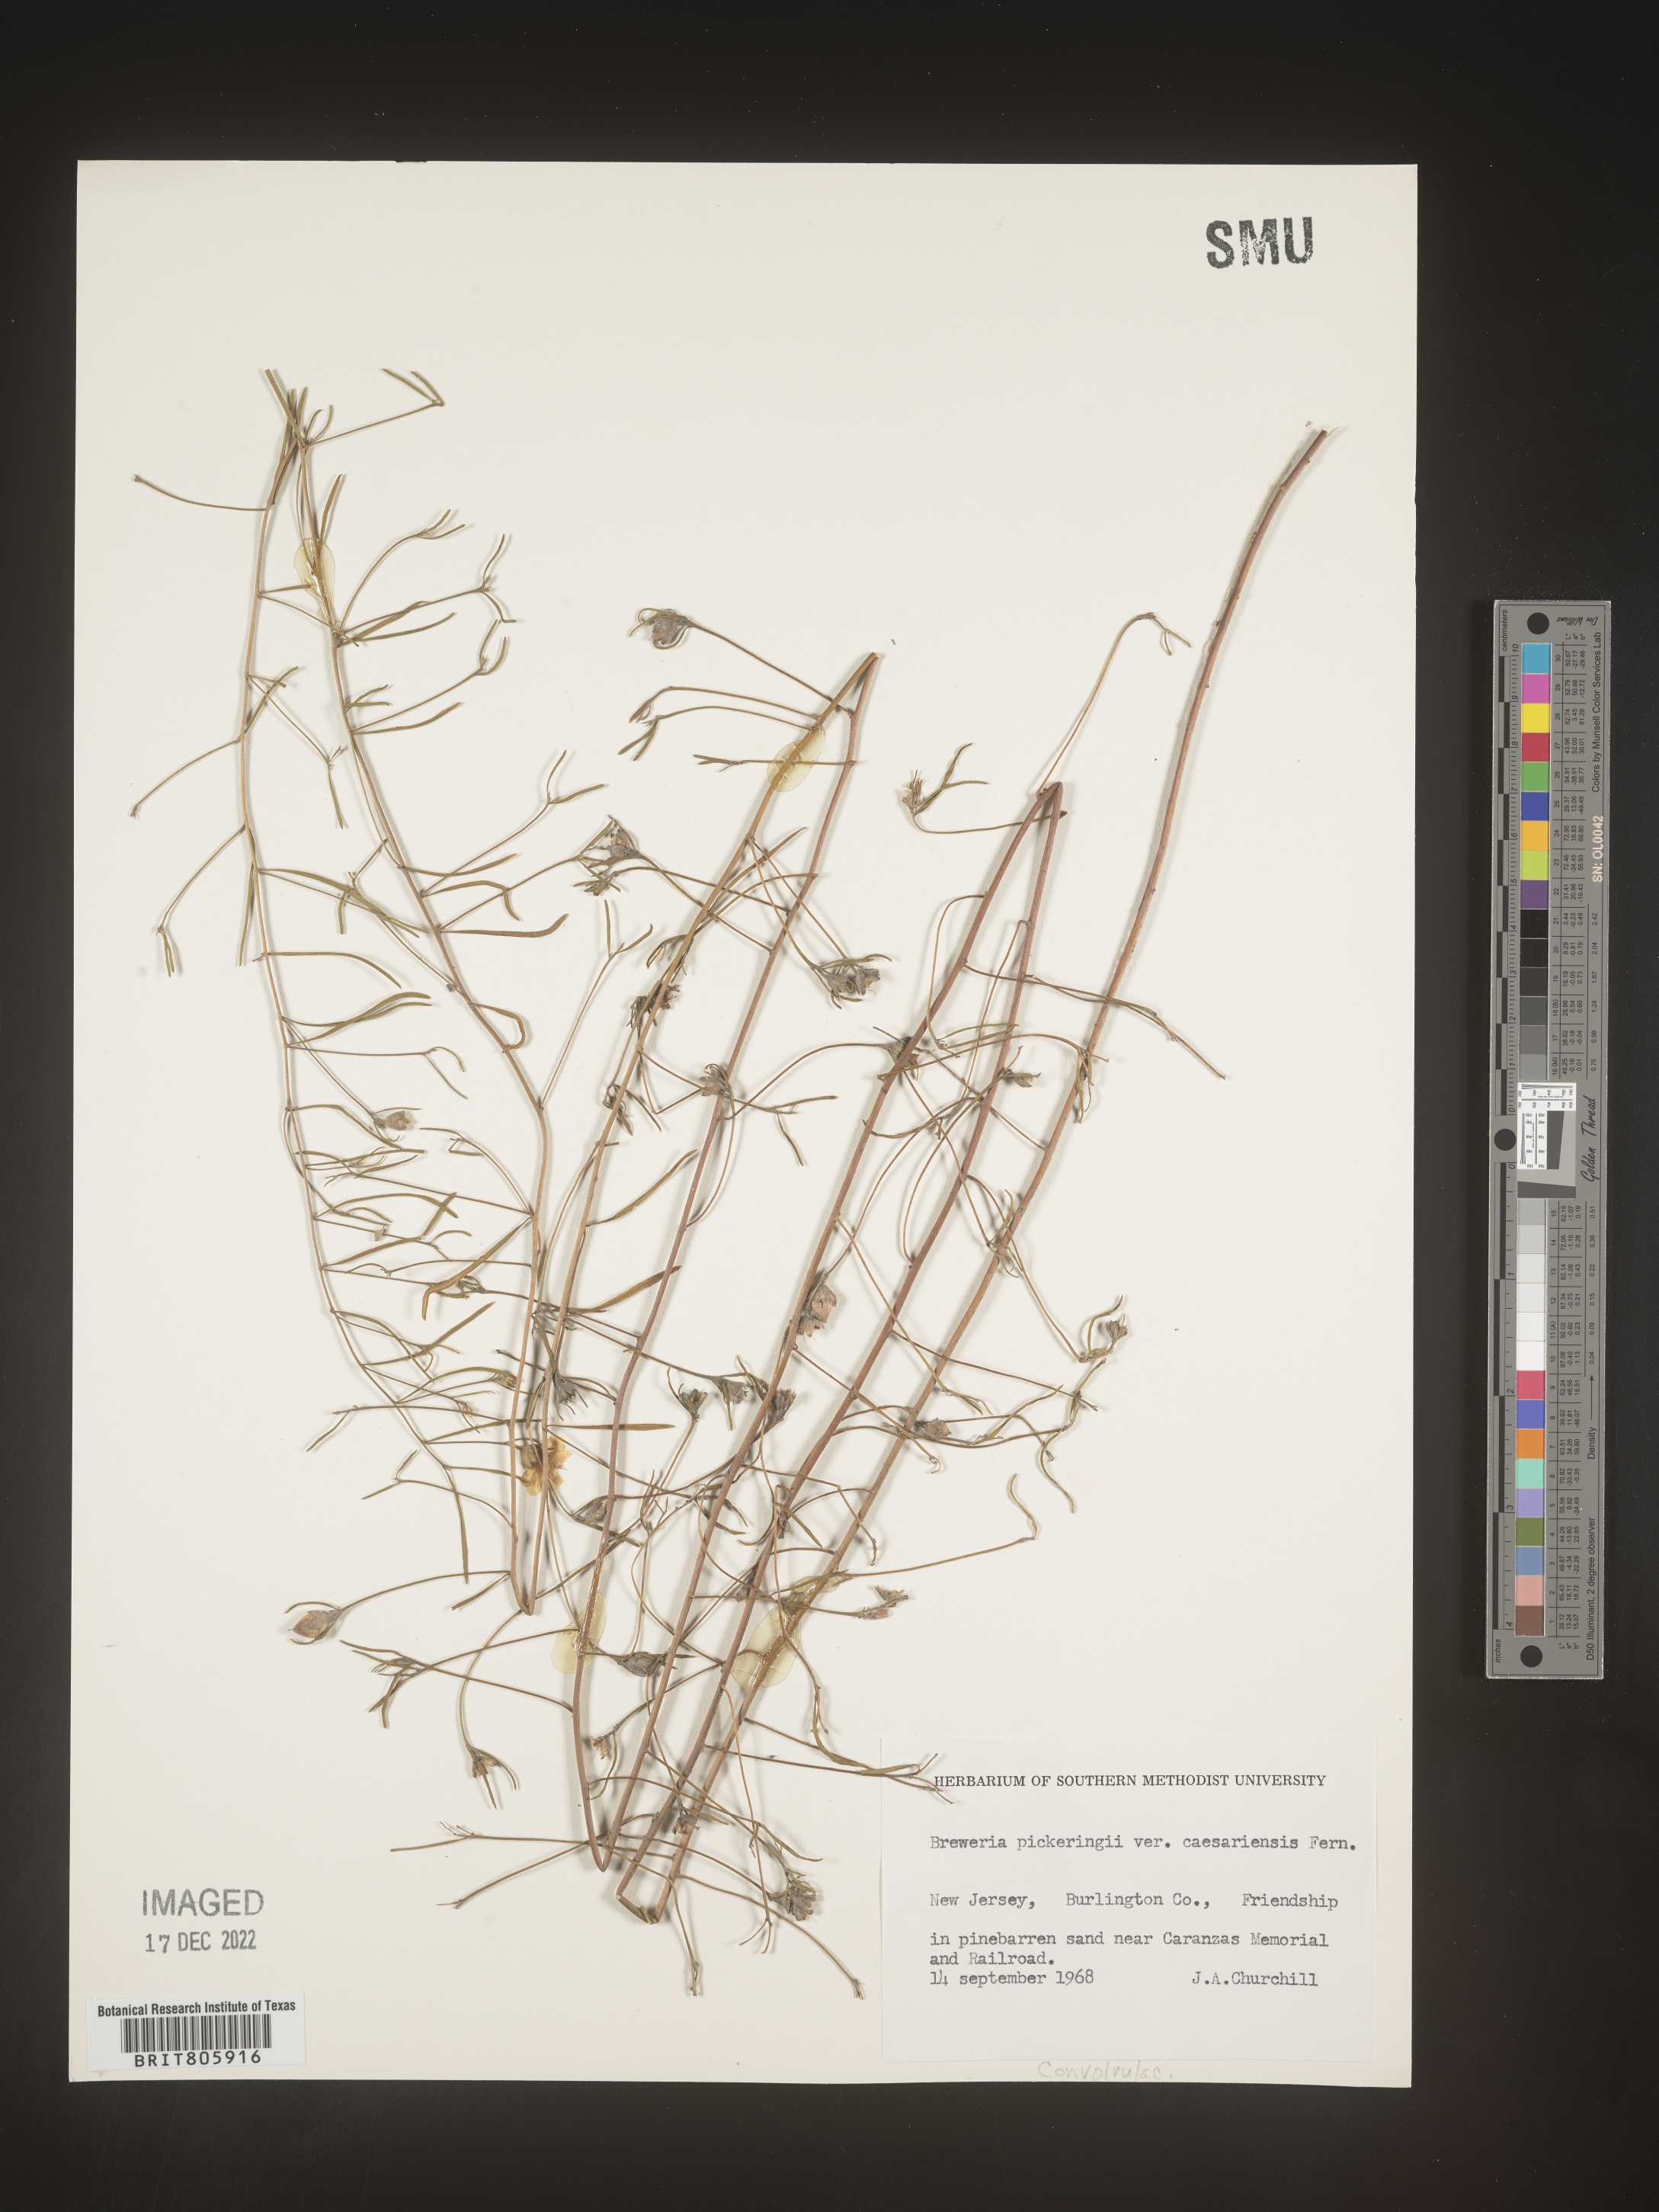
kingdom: Plantae
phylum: Tracheophyta
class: Magnoliopsida
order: Solanales
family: Convolvulaceae
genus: Stylisma
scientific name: Stylisma
